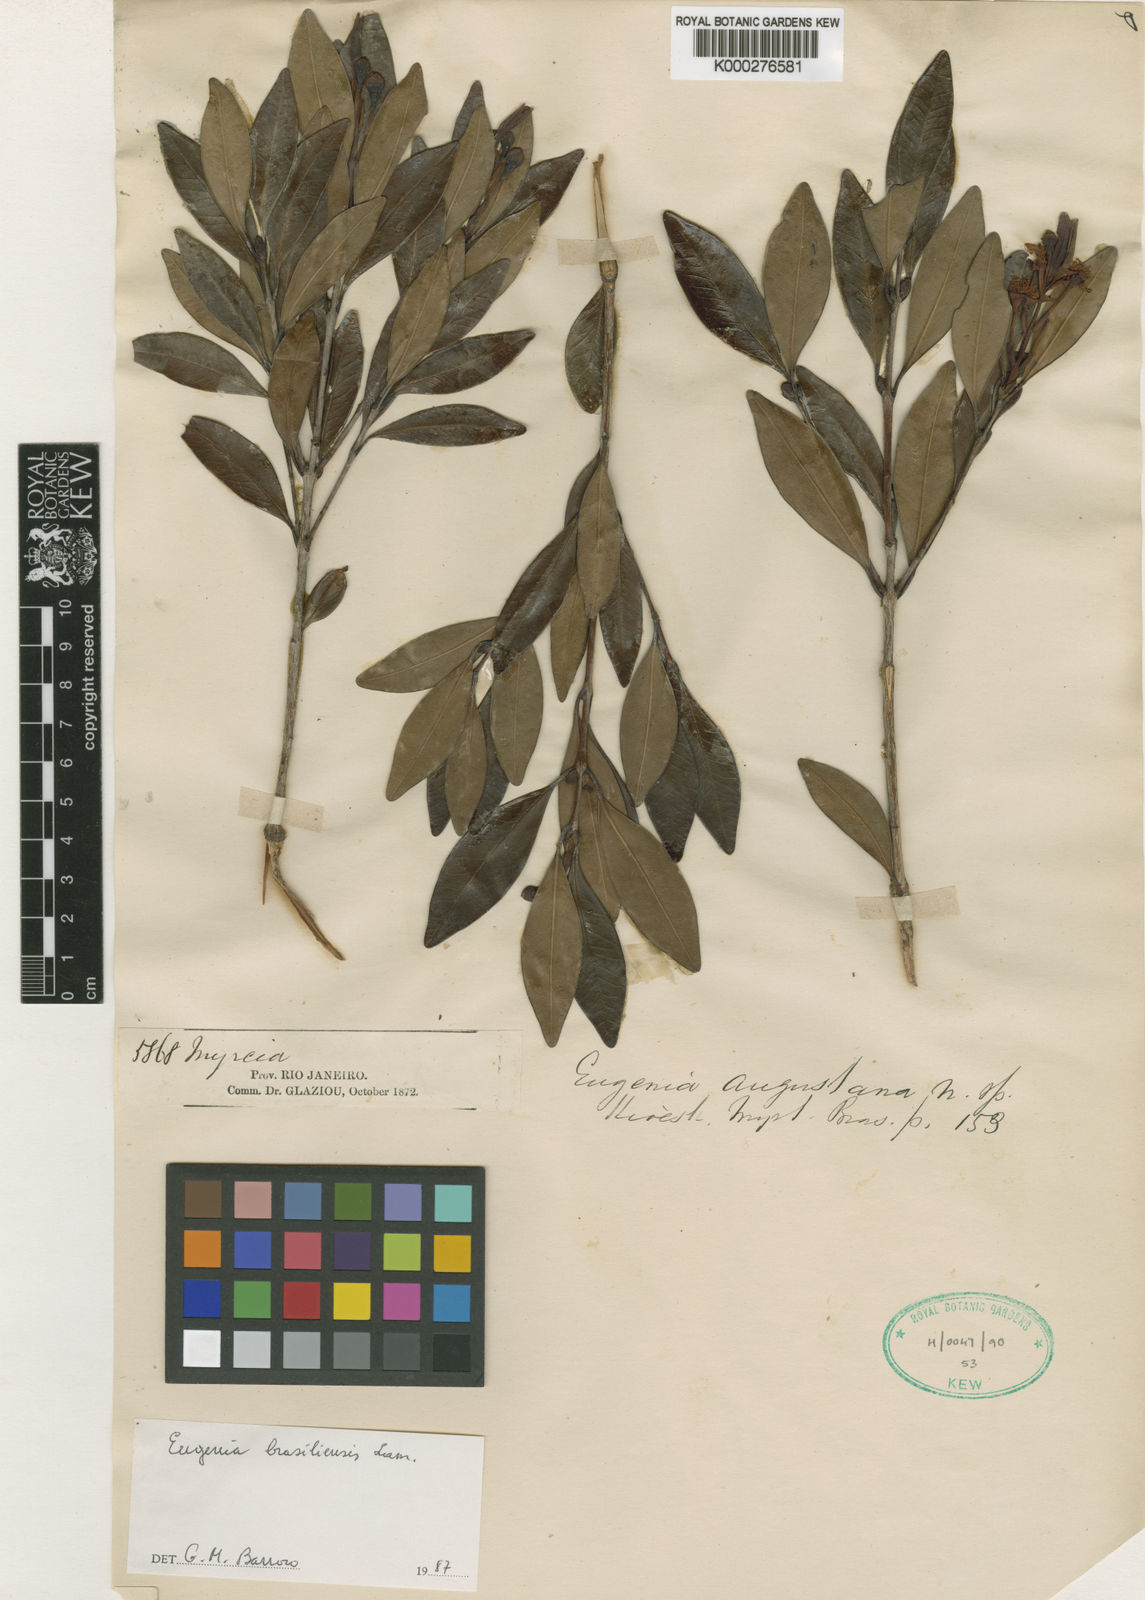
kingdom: Plantae
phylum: Tracheophyta
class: Magnoliopsida
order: Myrtales
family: Myrtaceae
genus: Eugenia
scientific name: Eugenia augustana
